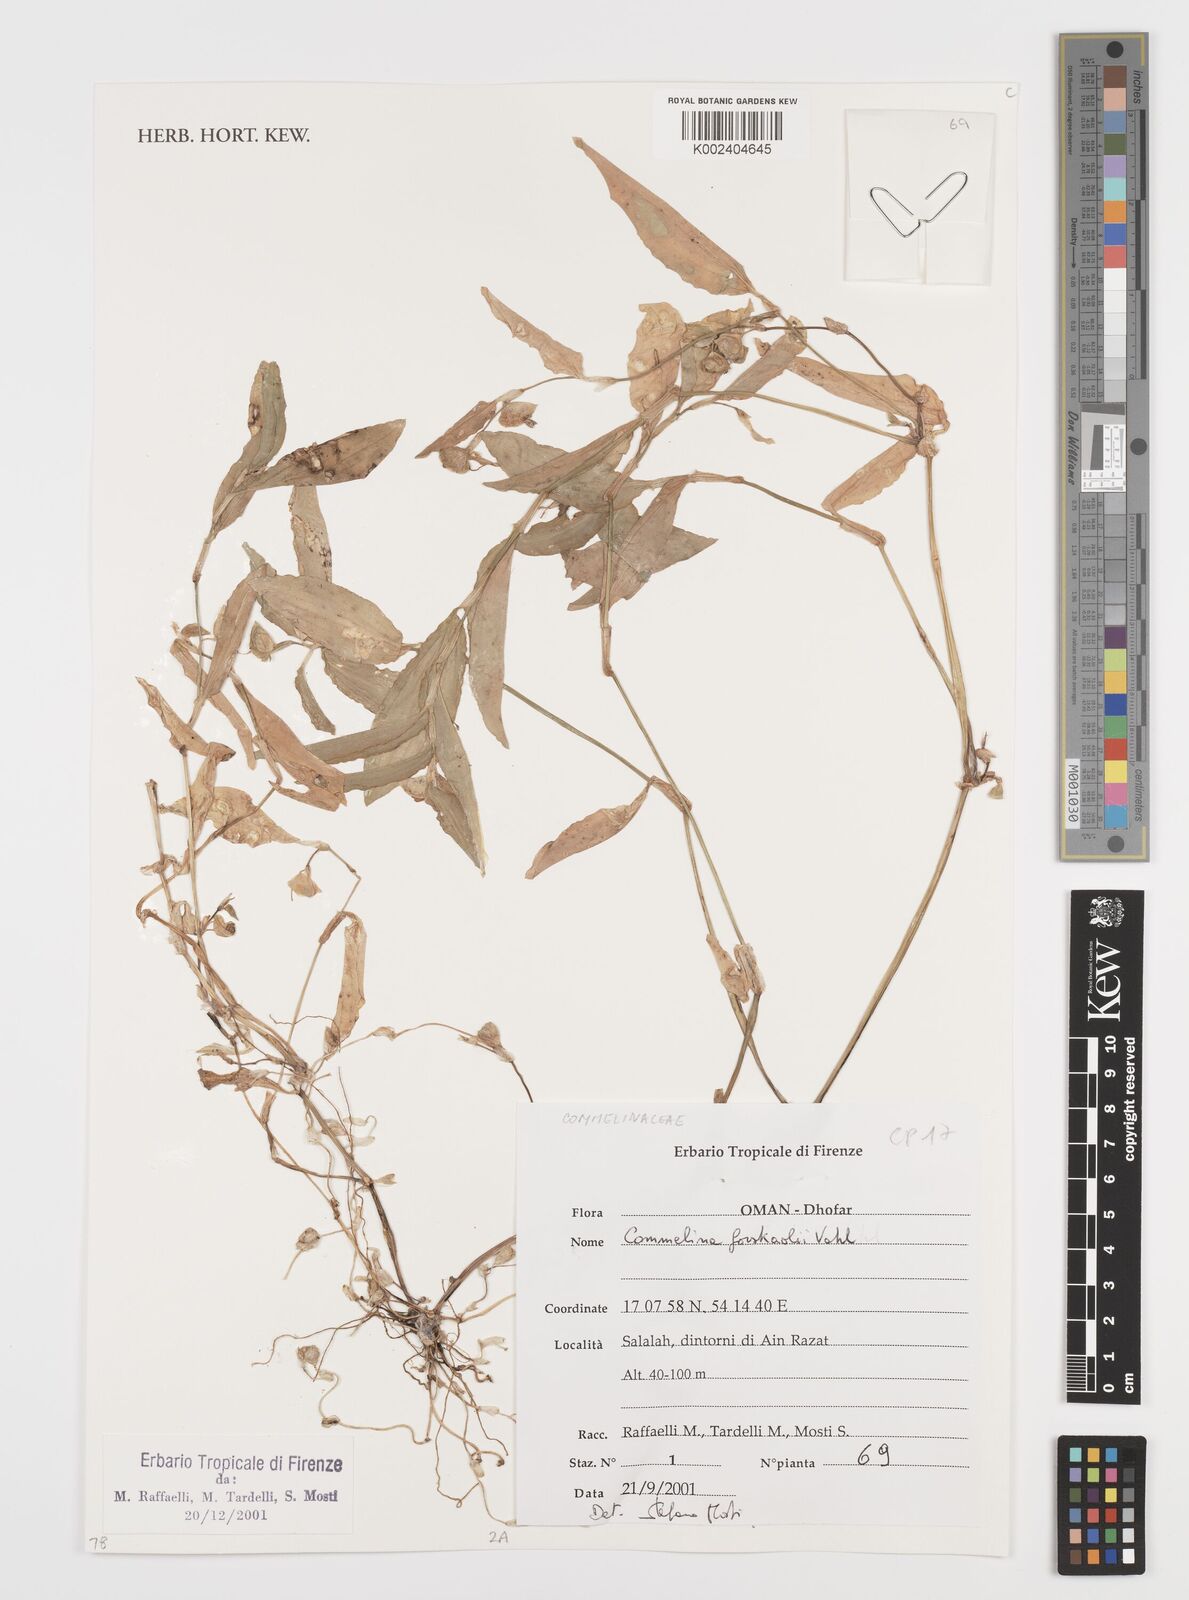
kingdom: Plantae
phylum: Tracheophyta
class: Liliopsida
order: Commelinales
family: Commelinaceae
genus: Commelina
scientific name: Commelina forskaolii
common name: Rat's ear
